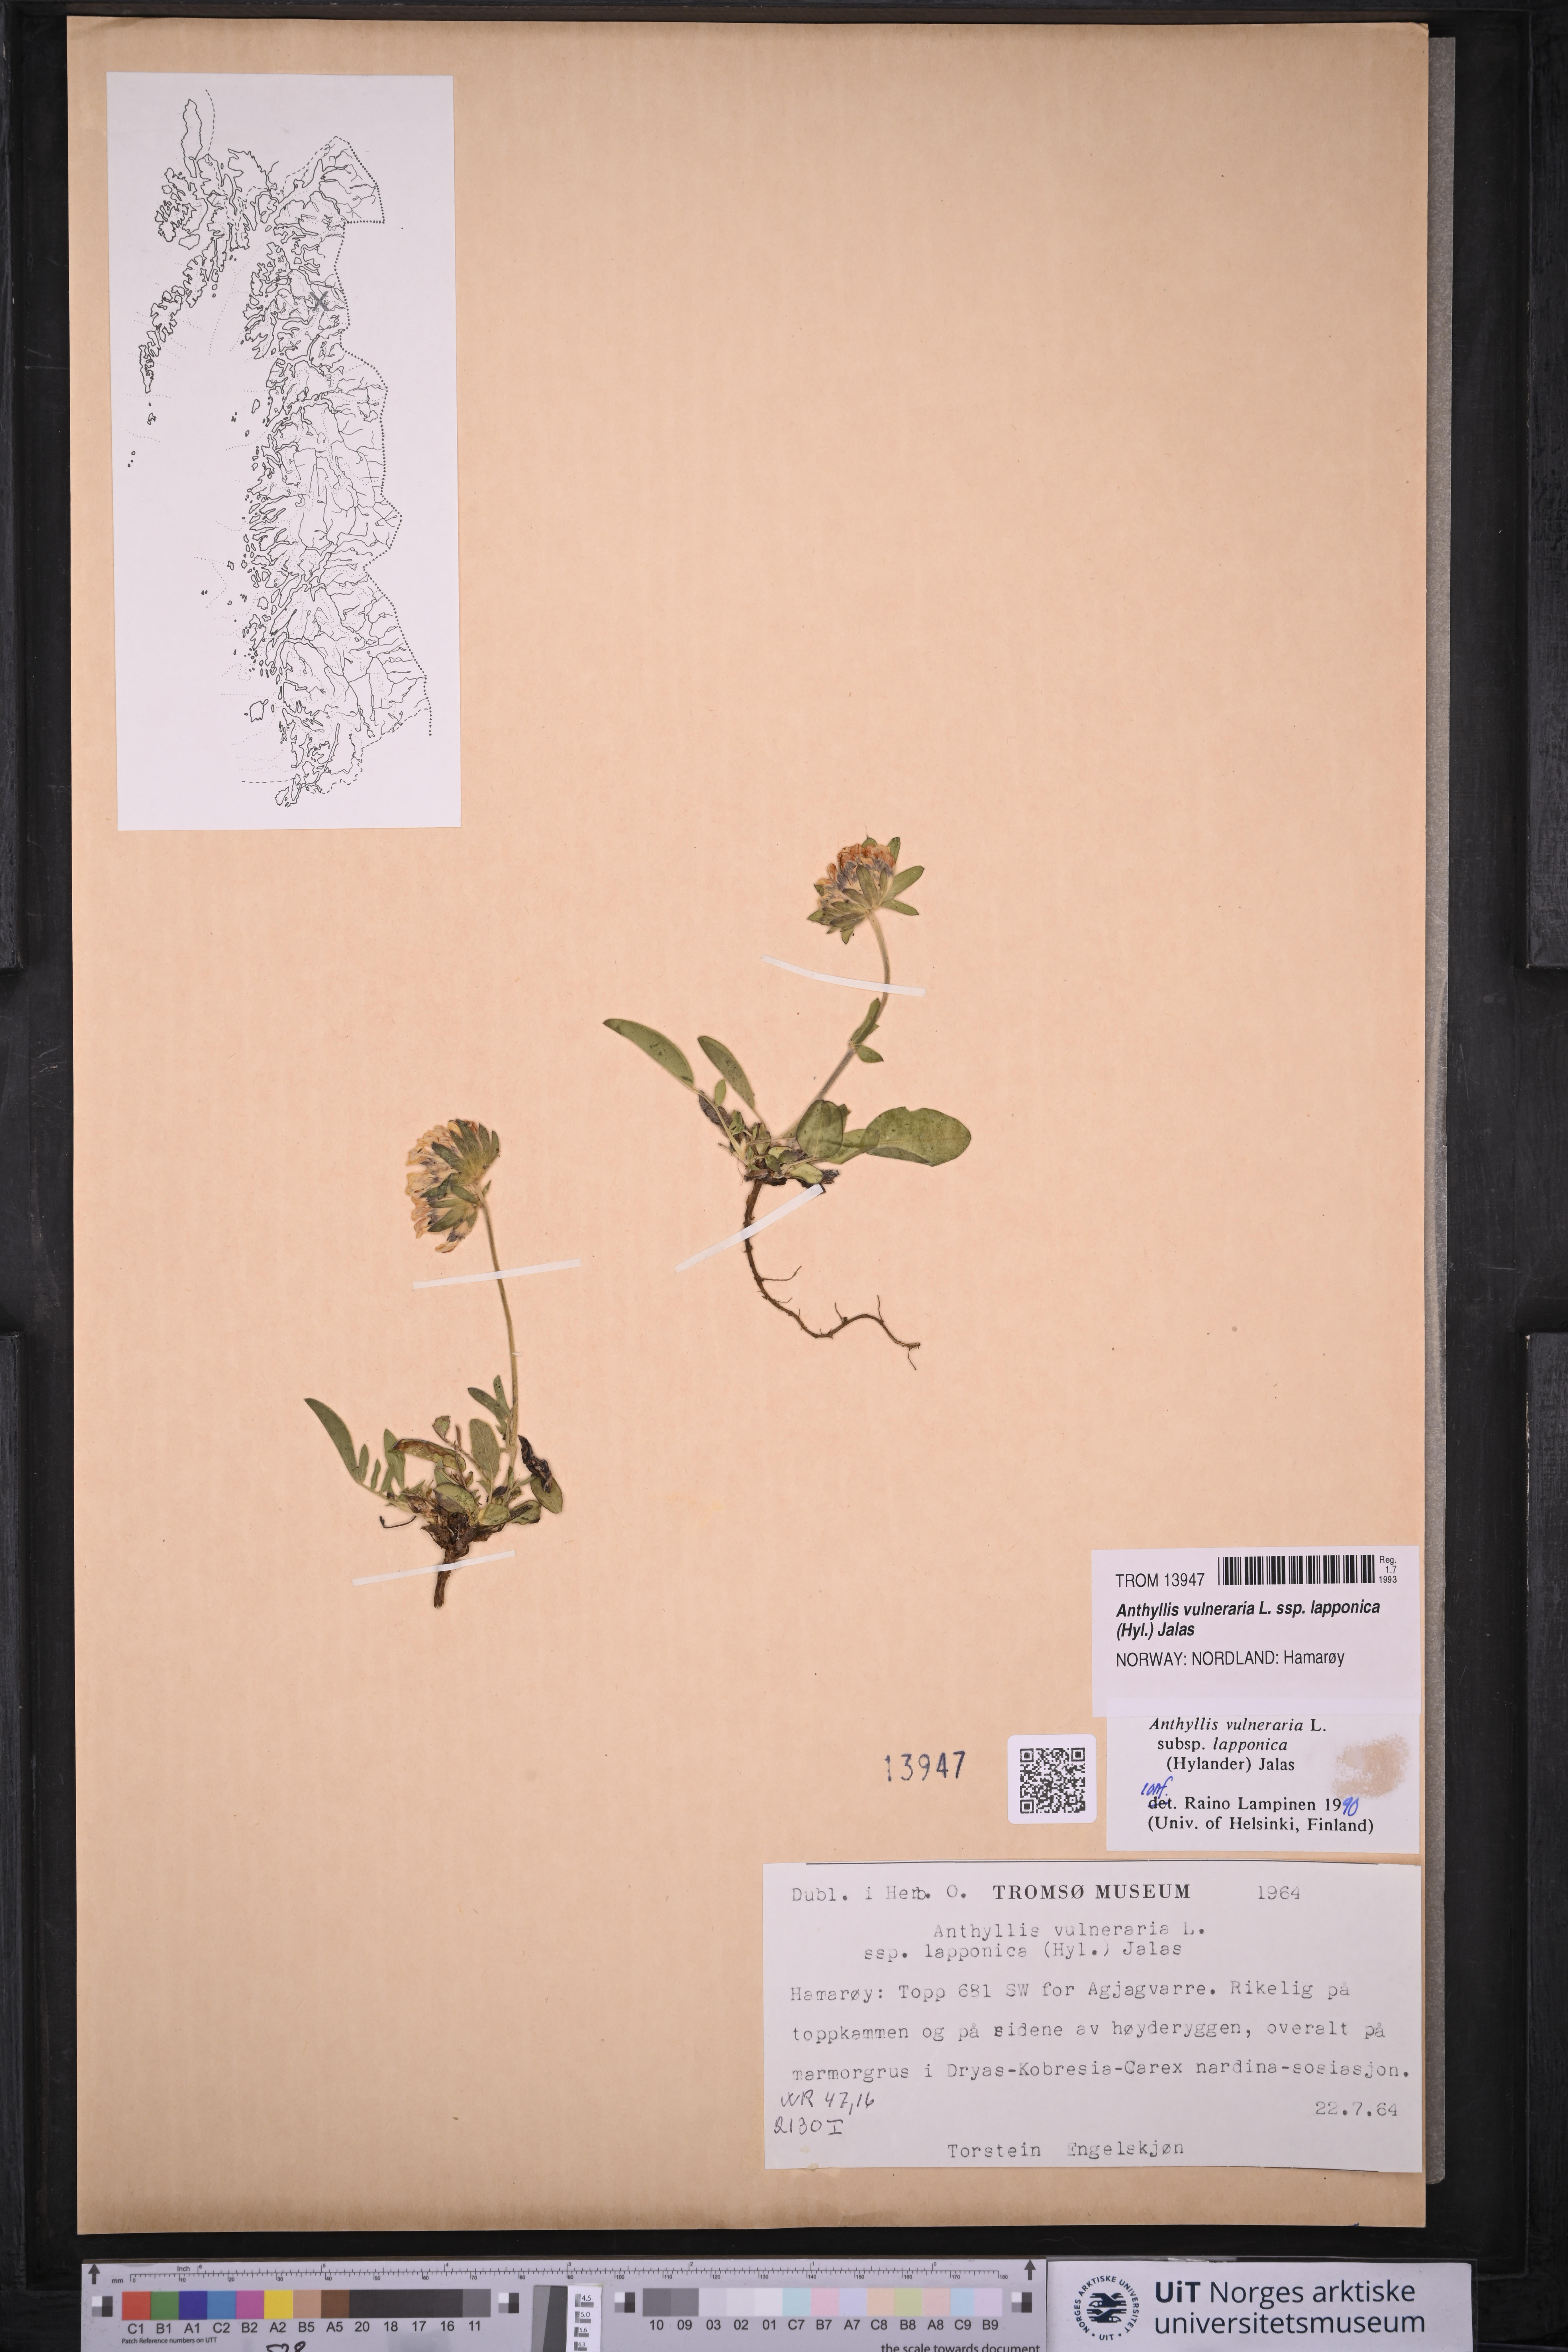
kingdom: Plantae
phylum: Tracheophyta
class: Magnoliopsida
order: Fabales
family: Fabaceae
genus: Anthyllis
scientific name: Anthyllis vulneraria
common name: Kidney vetch
